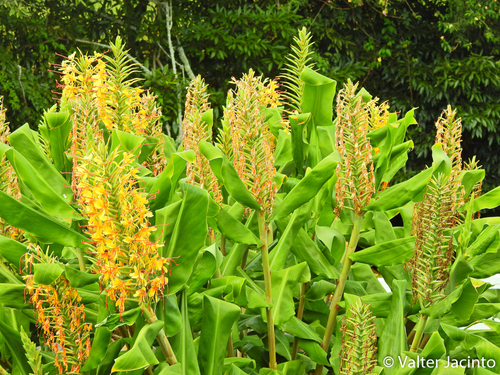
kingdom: Plantae
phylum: Tracheophyta
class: Liliopsida
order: Zingiberales
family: Zingiberaceae
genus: Hedychium
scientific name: Hedychium gardnerianum
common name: Himalayan ginger
